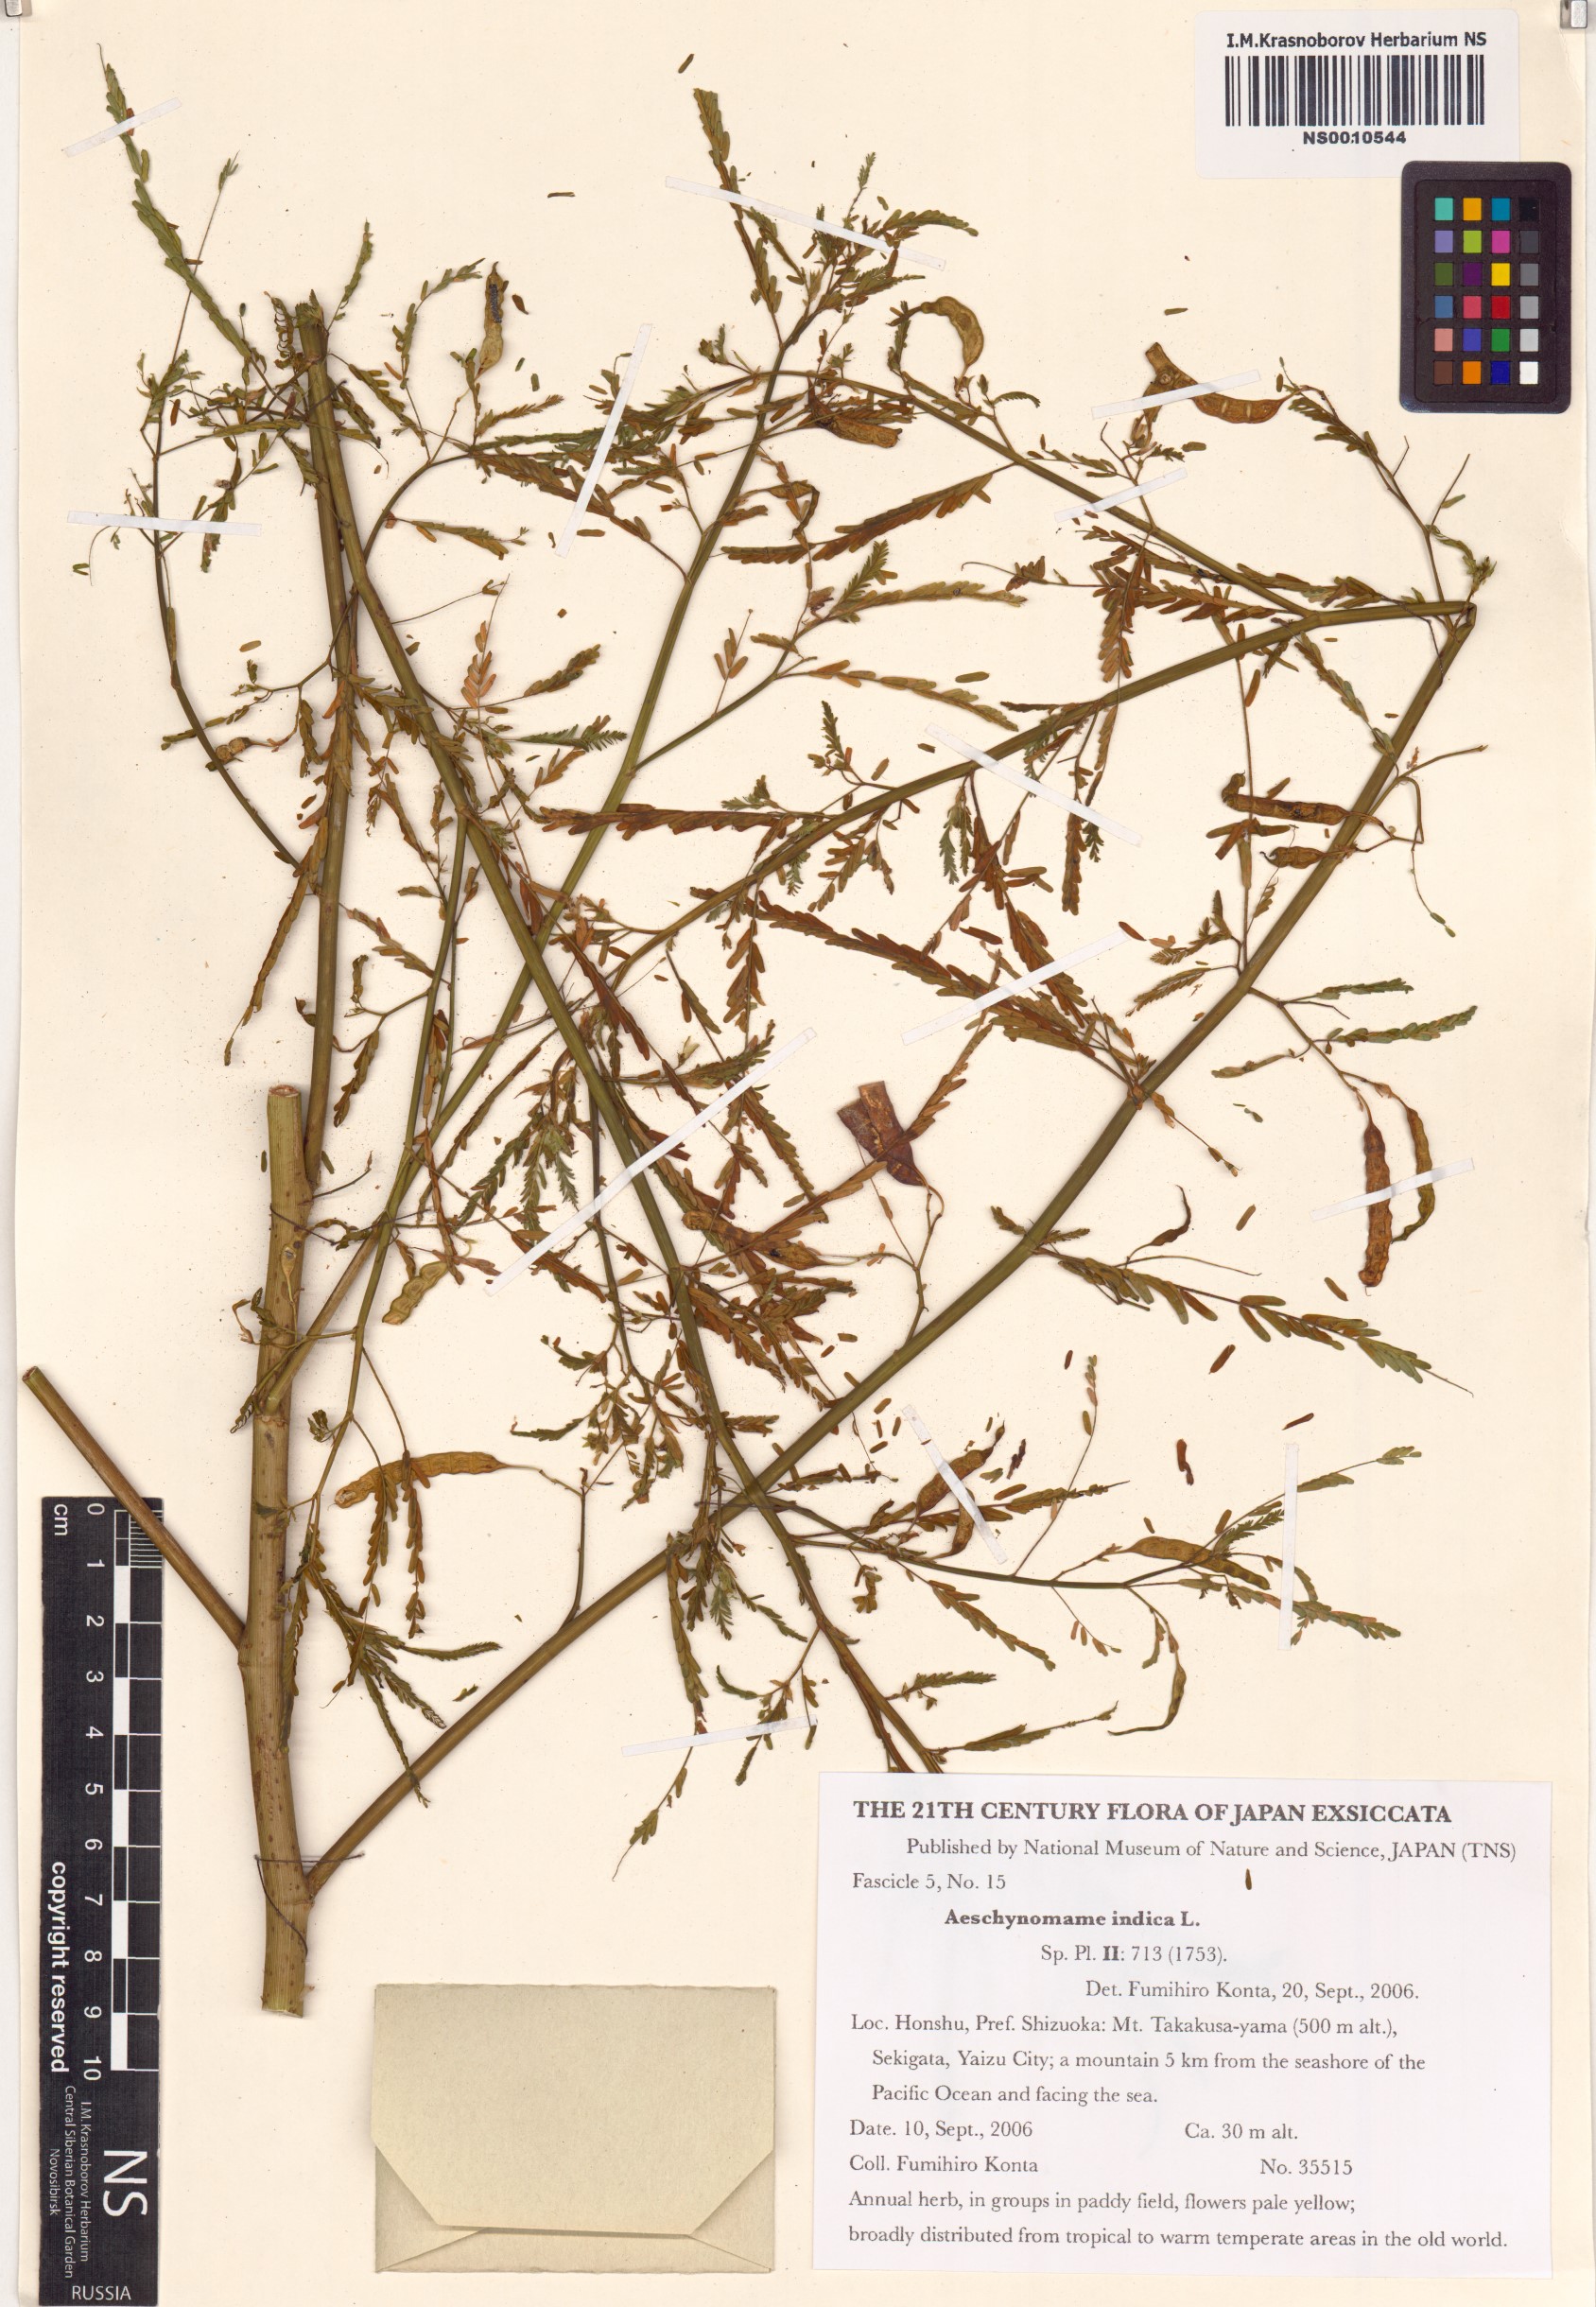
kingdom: Plantae
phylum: Tracheophyta
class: Magnoliopsida
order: Fabales
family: Fabaceae
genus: Aeschynomene
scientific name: Aeschynomene indica
